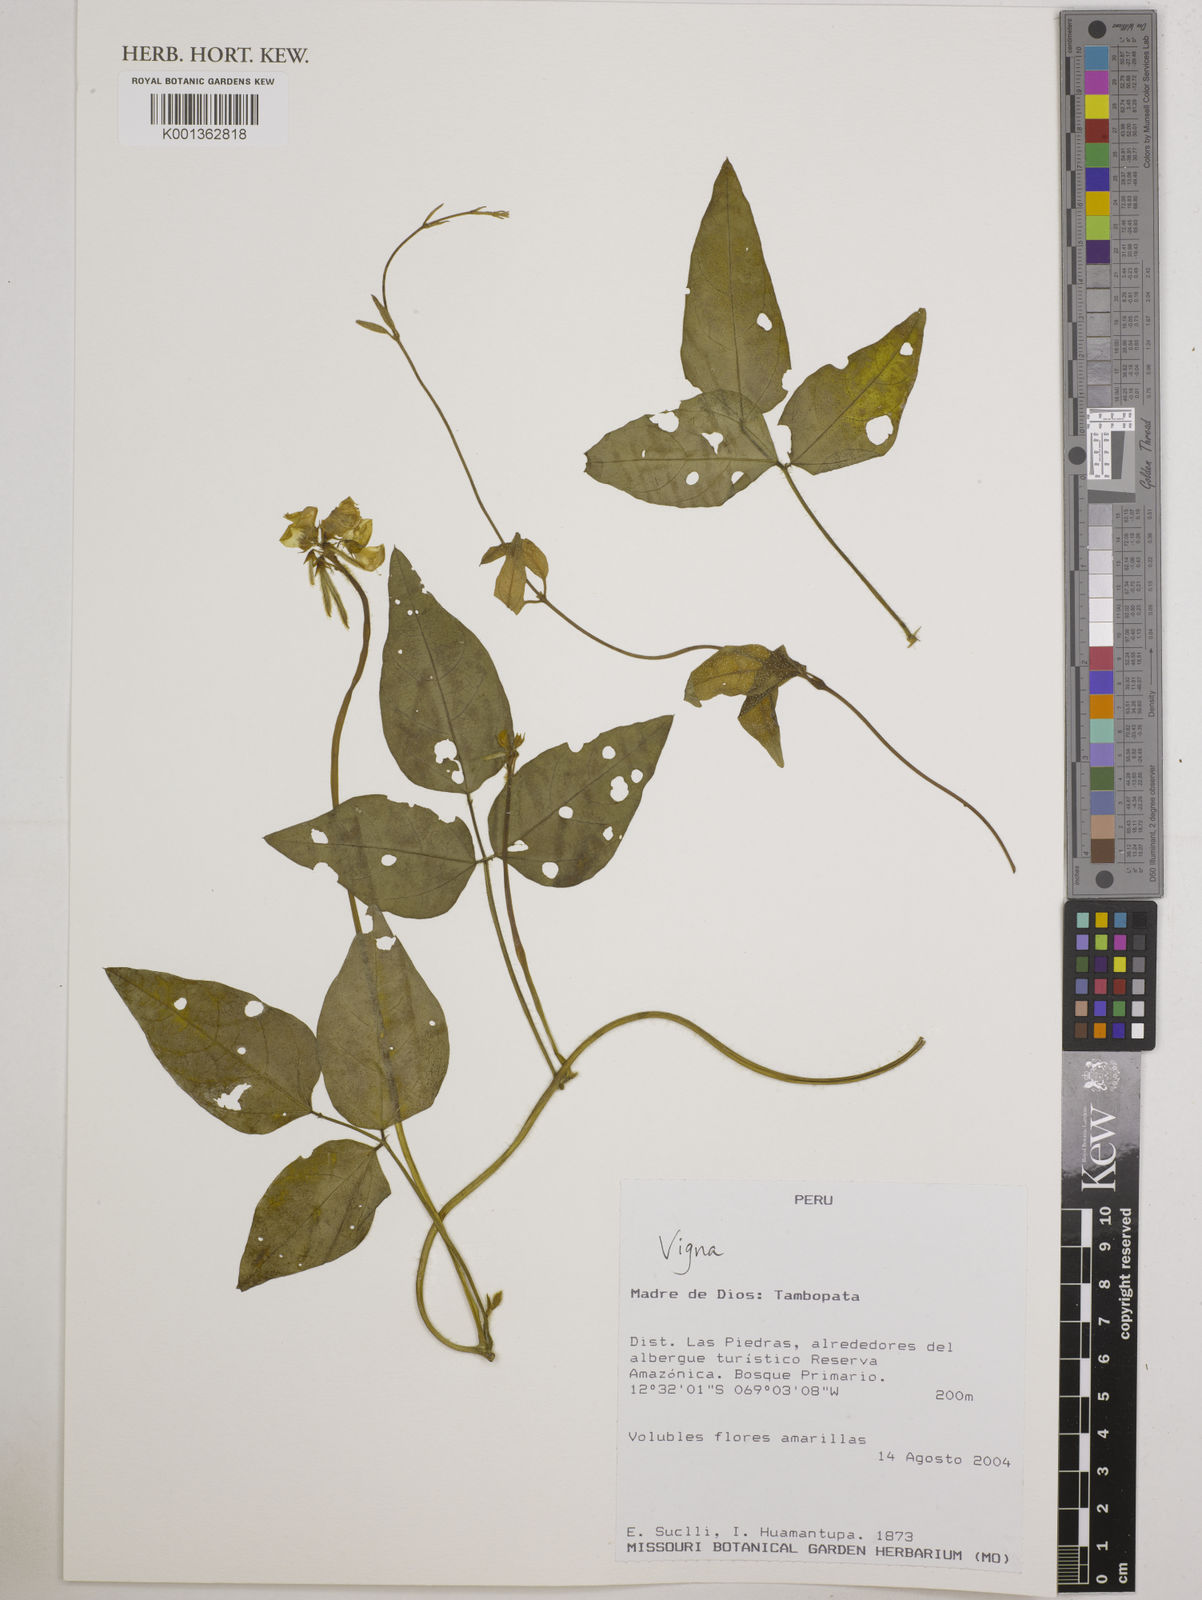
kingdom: Plantae
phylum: Tracheophyta
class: Magnoliopsida
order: Fabales
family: Fabaceae
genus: Vigna
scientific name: Vigna
